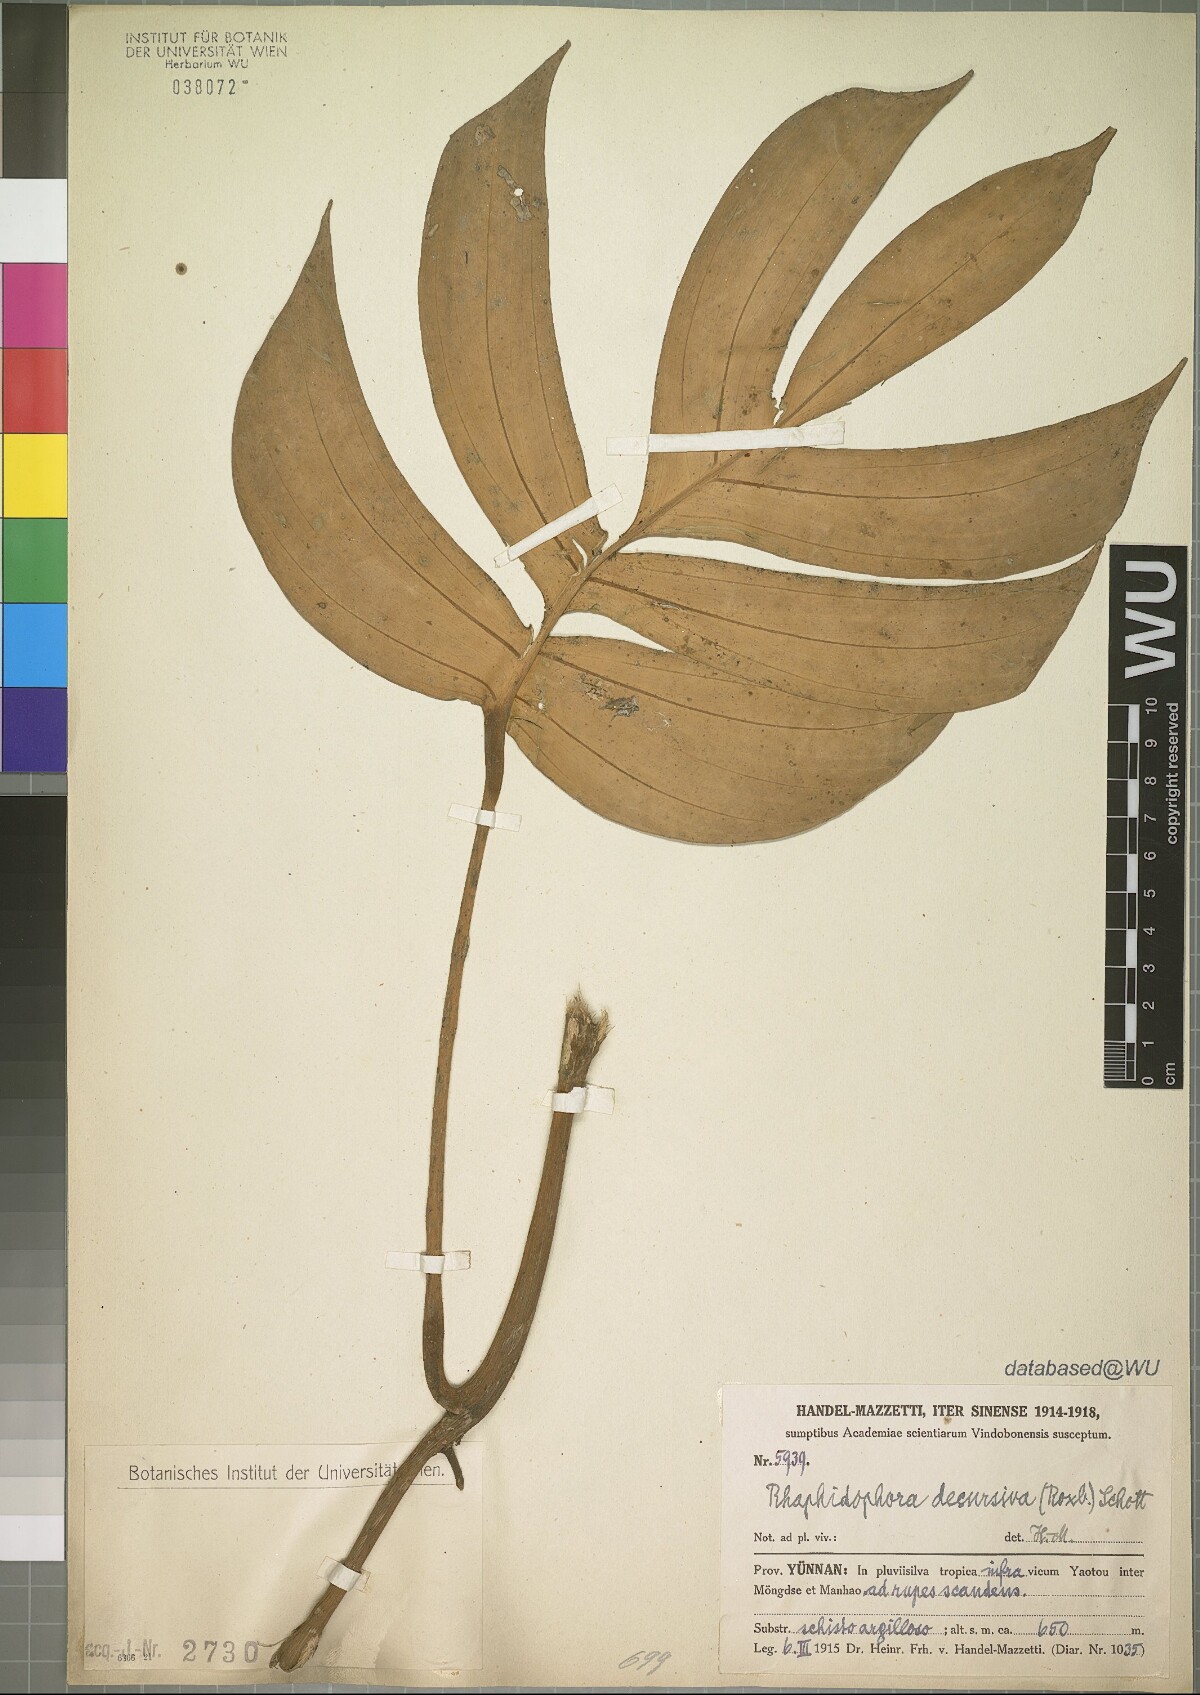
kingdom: Plantae
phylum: Tracheophyta
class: Liliopsida
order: Alismatales
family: Araceae
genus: Rhaphidophora
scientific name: Rhaphidophora decursiva
